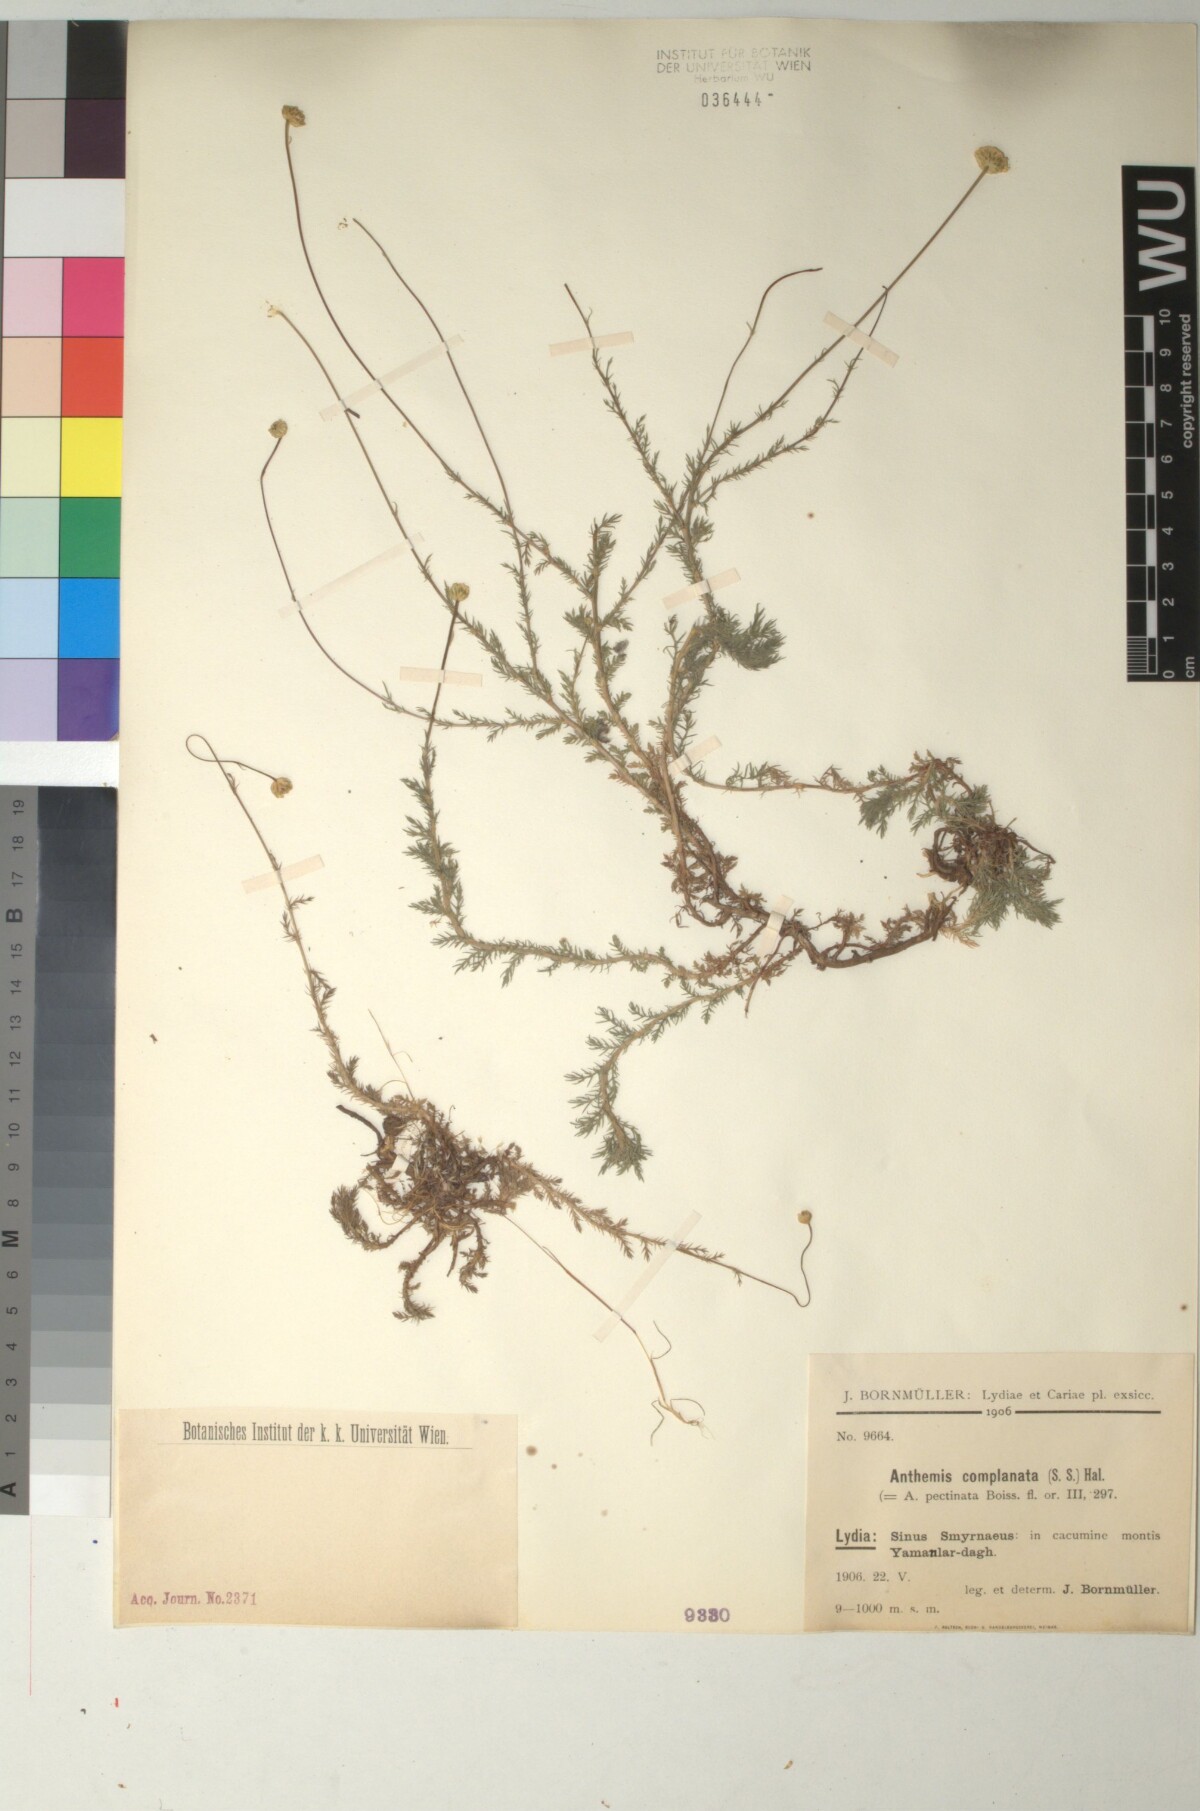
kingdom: Plantae
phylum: Tracheophyta
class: Magnoliopsida
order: Asterales
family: Asteraceae
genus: Anthemis
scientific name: Anthemis orientalis
